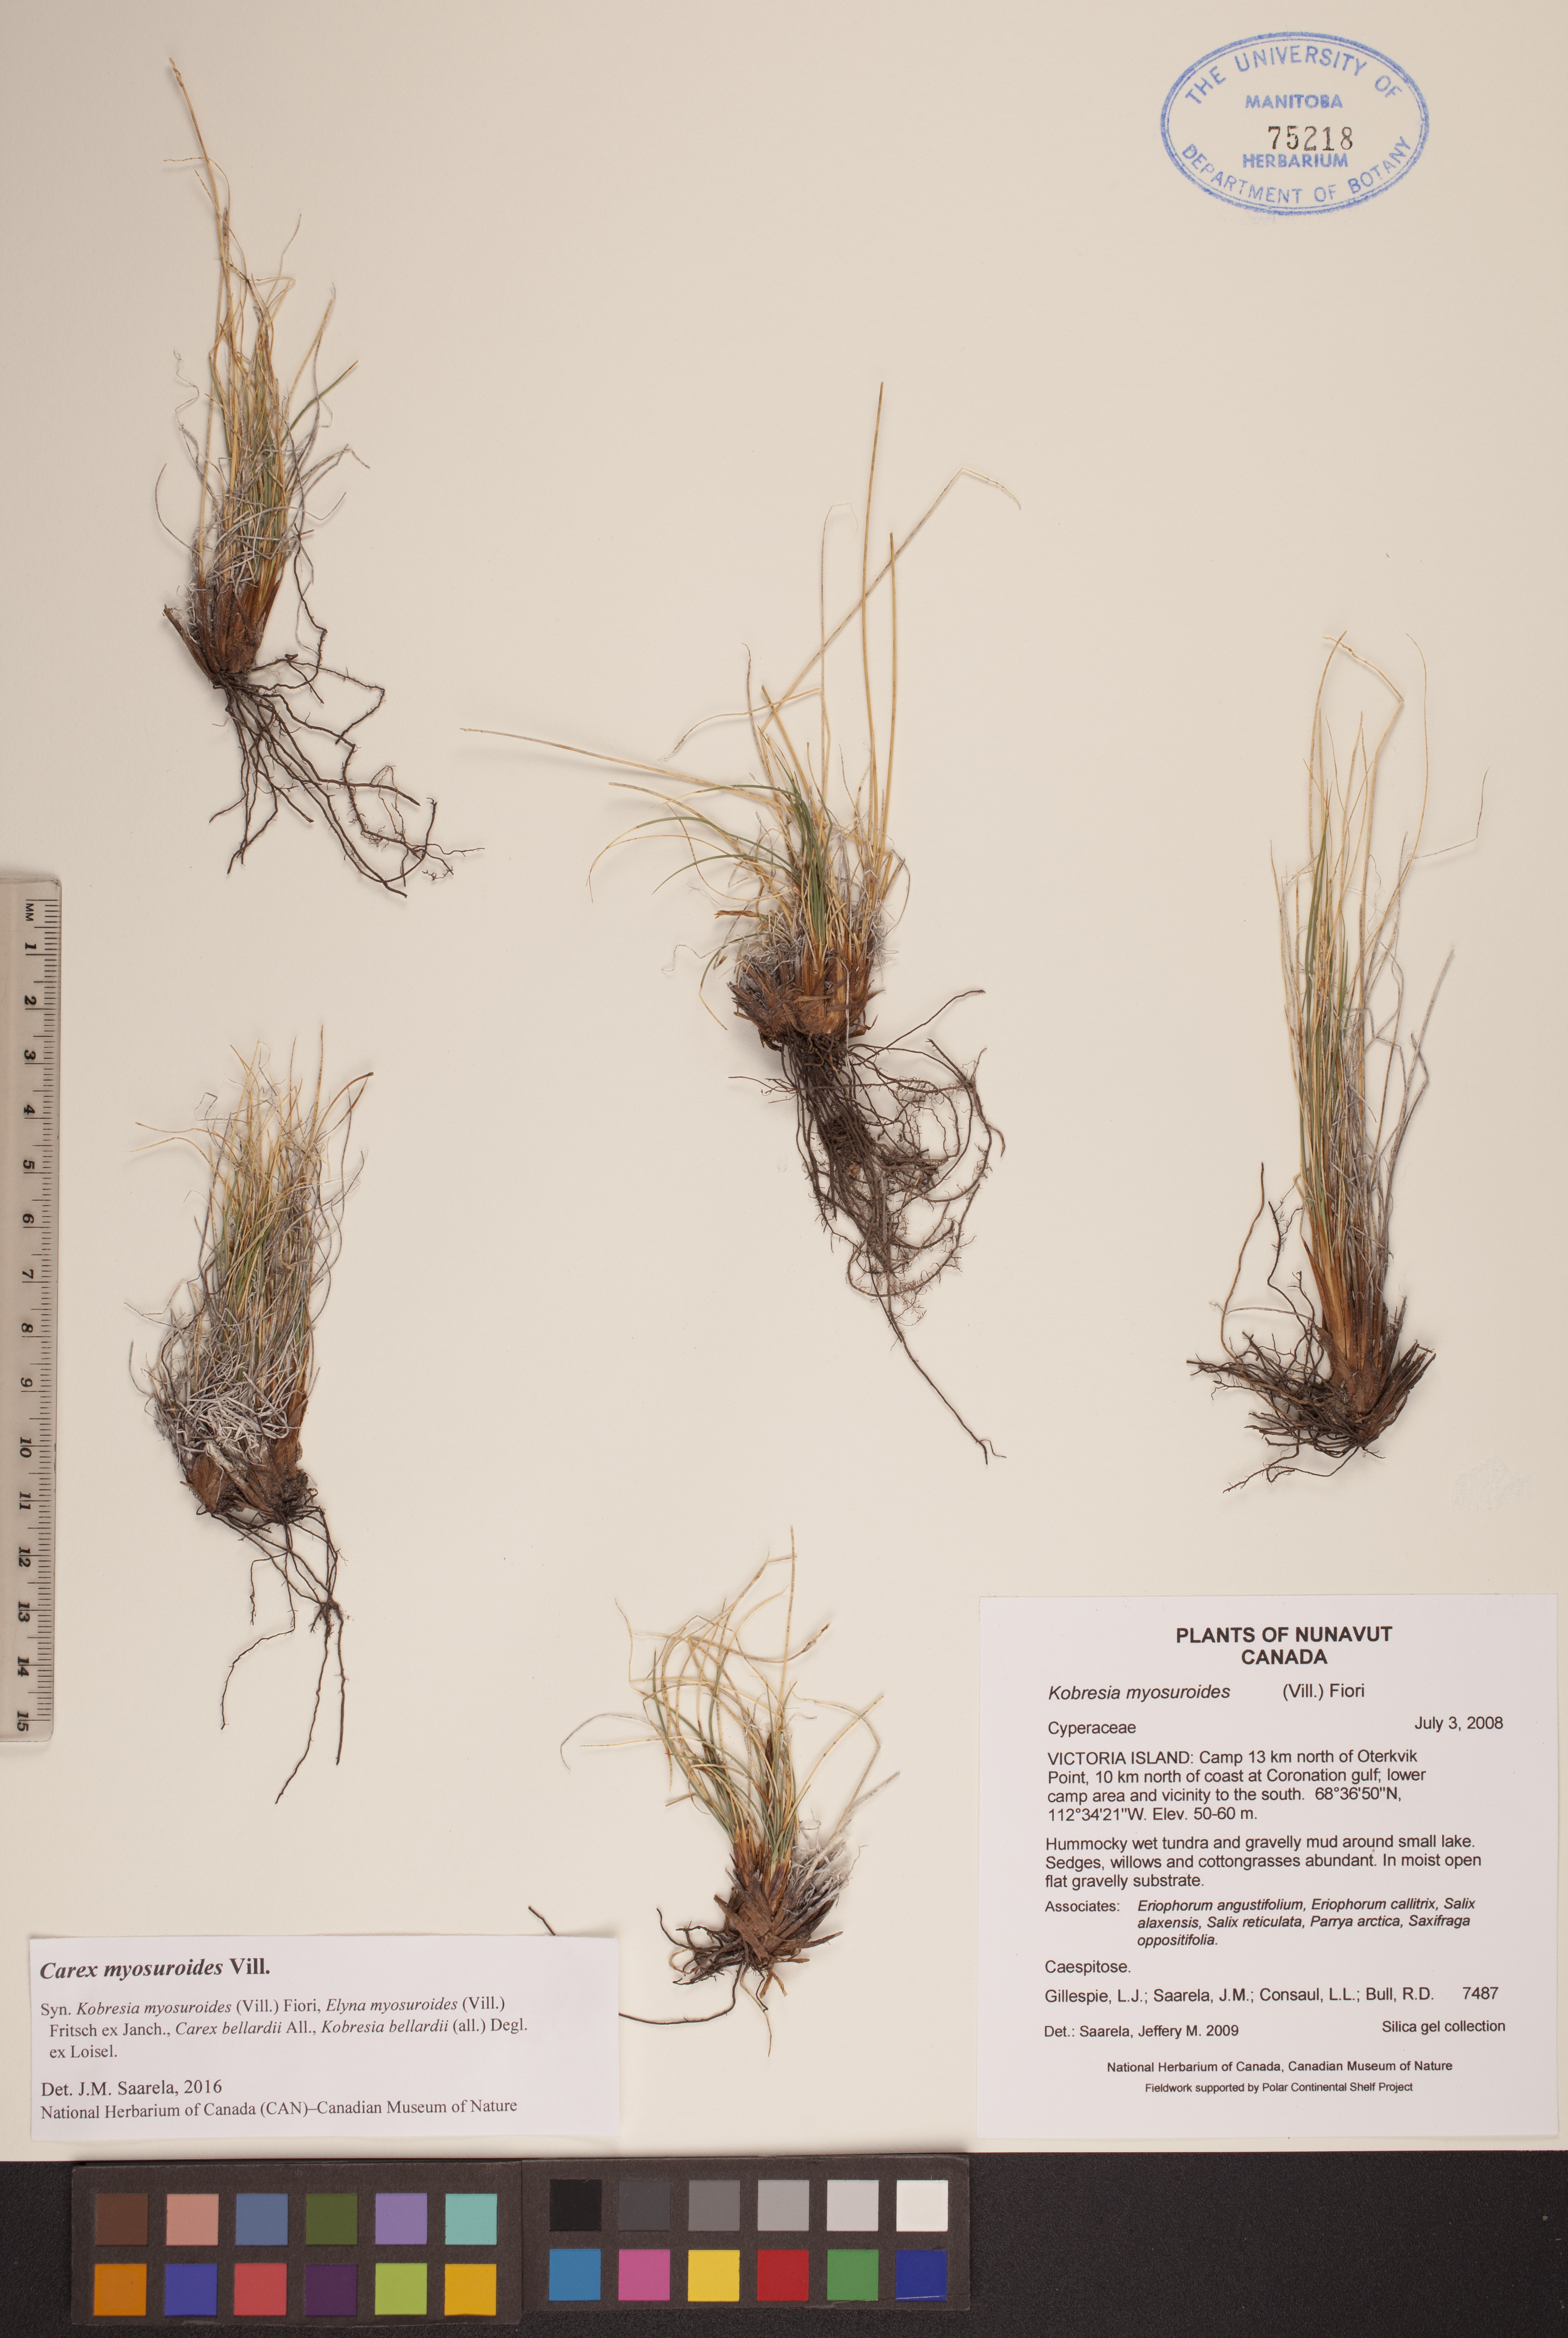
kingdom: Plantae
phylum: Tracheophyta
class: Liliopsida
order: Poales
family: Cyperaceae
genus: Carex
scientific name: Carex myosuroides
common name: Bellard's bog sedge
